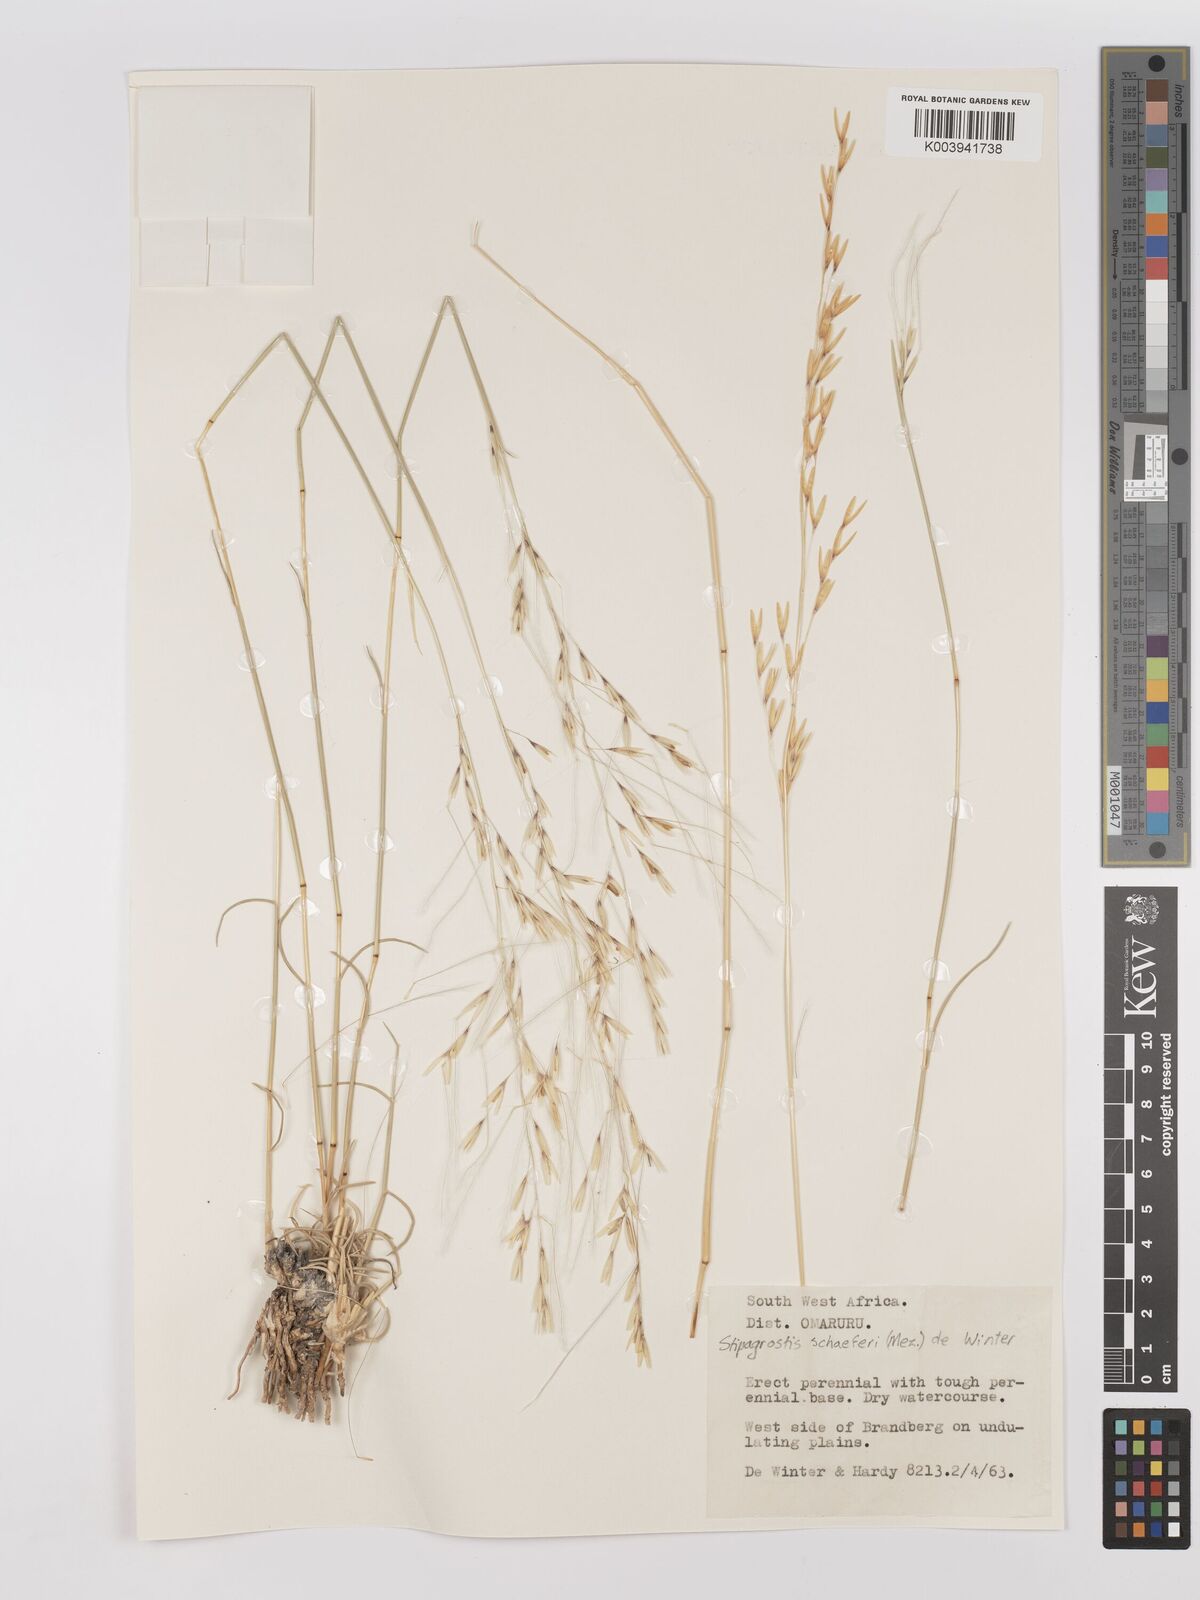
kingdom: Plantae
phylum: Tracheophyta
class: Liliopsida
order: Poales
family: Poaceae
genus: Stipagrostis
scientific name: Stipagrostis schaeferi
